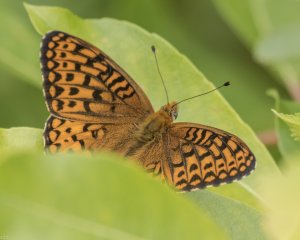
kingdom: Animalia
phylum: Arthropoda
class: Insecta
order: Lepidoptera
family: Nymphalidae
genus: Speyeria
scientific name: Speyeria atlantis
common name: Atlantis Fritillary
